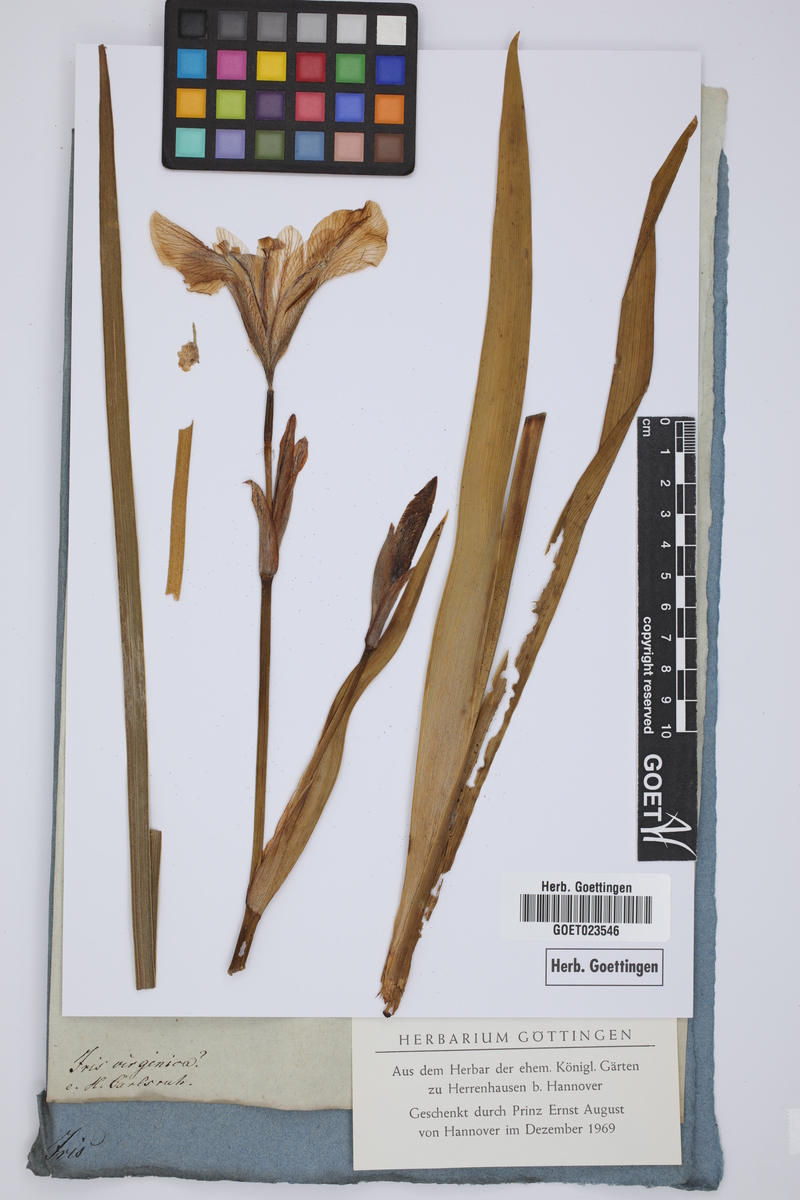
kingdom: Plantae
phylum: Tracheophyta
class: Liliopsida
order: Asparagales
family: Iridaceae
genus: Iris
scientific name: Iris virginica
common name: Southern blue flag
